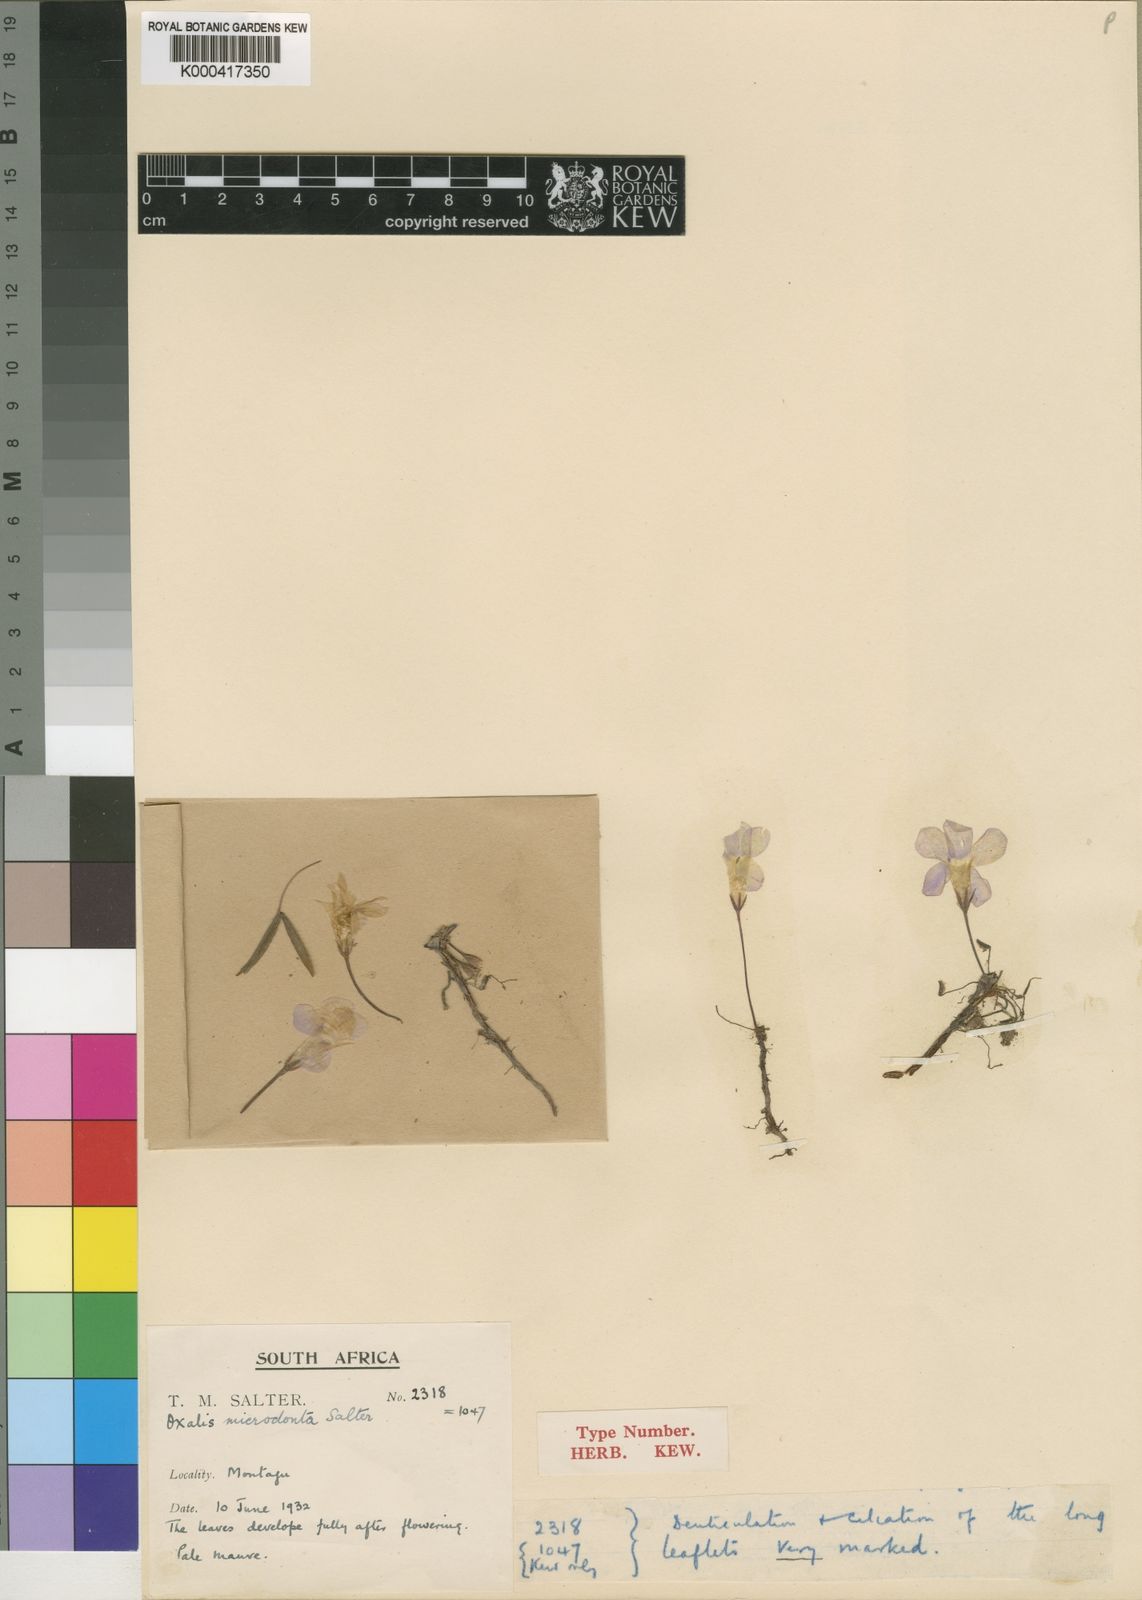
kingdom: Plantae
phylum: Tracheophyta
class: Magnoliopsida
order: Oxalidales
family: Oxalidaceae
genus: Oxalis
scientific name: Oxalis microdonta
